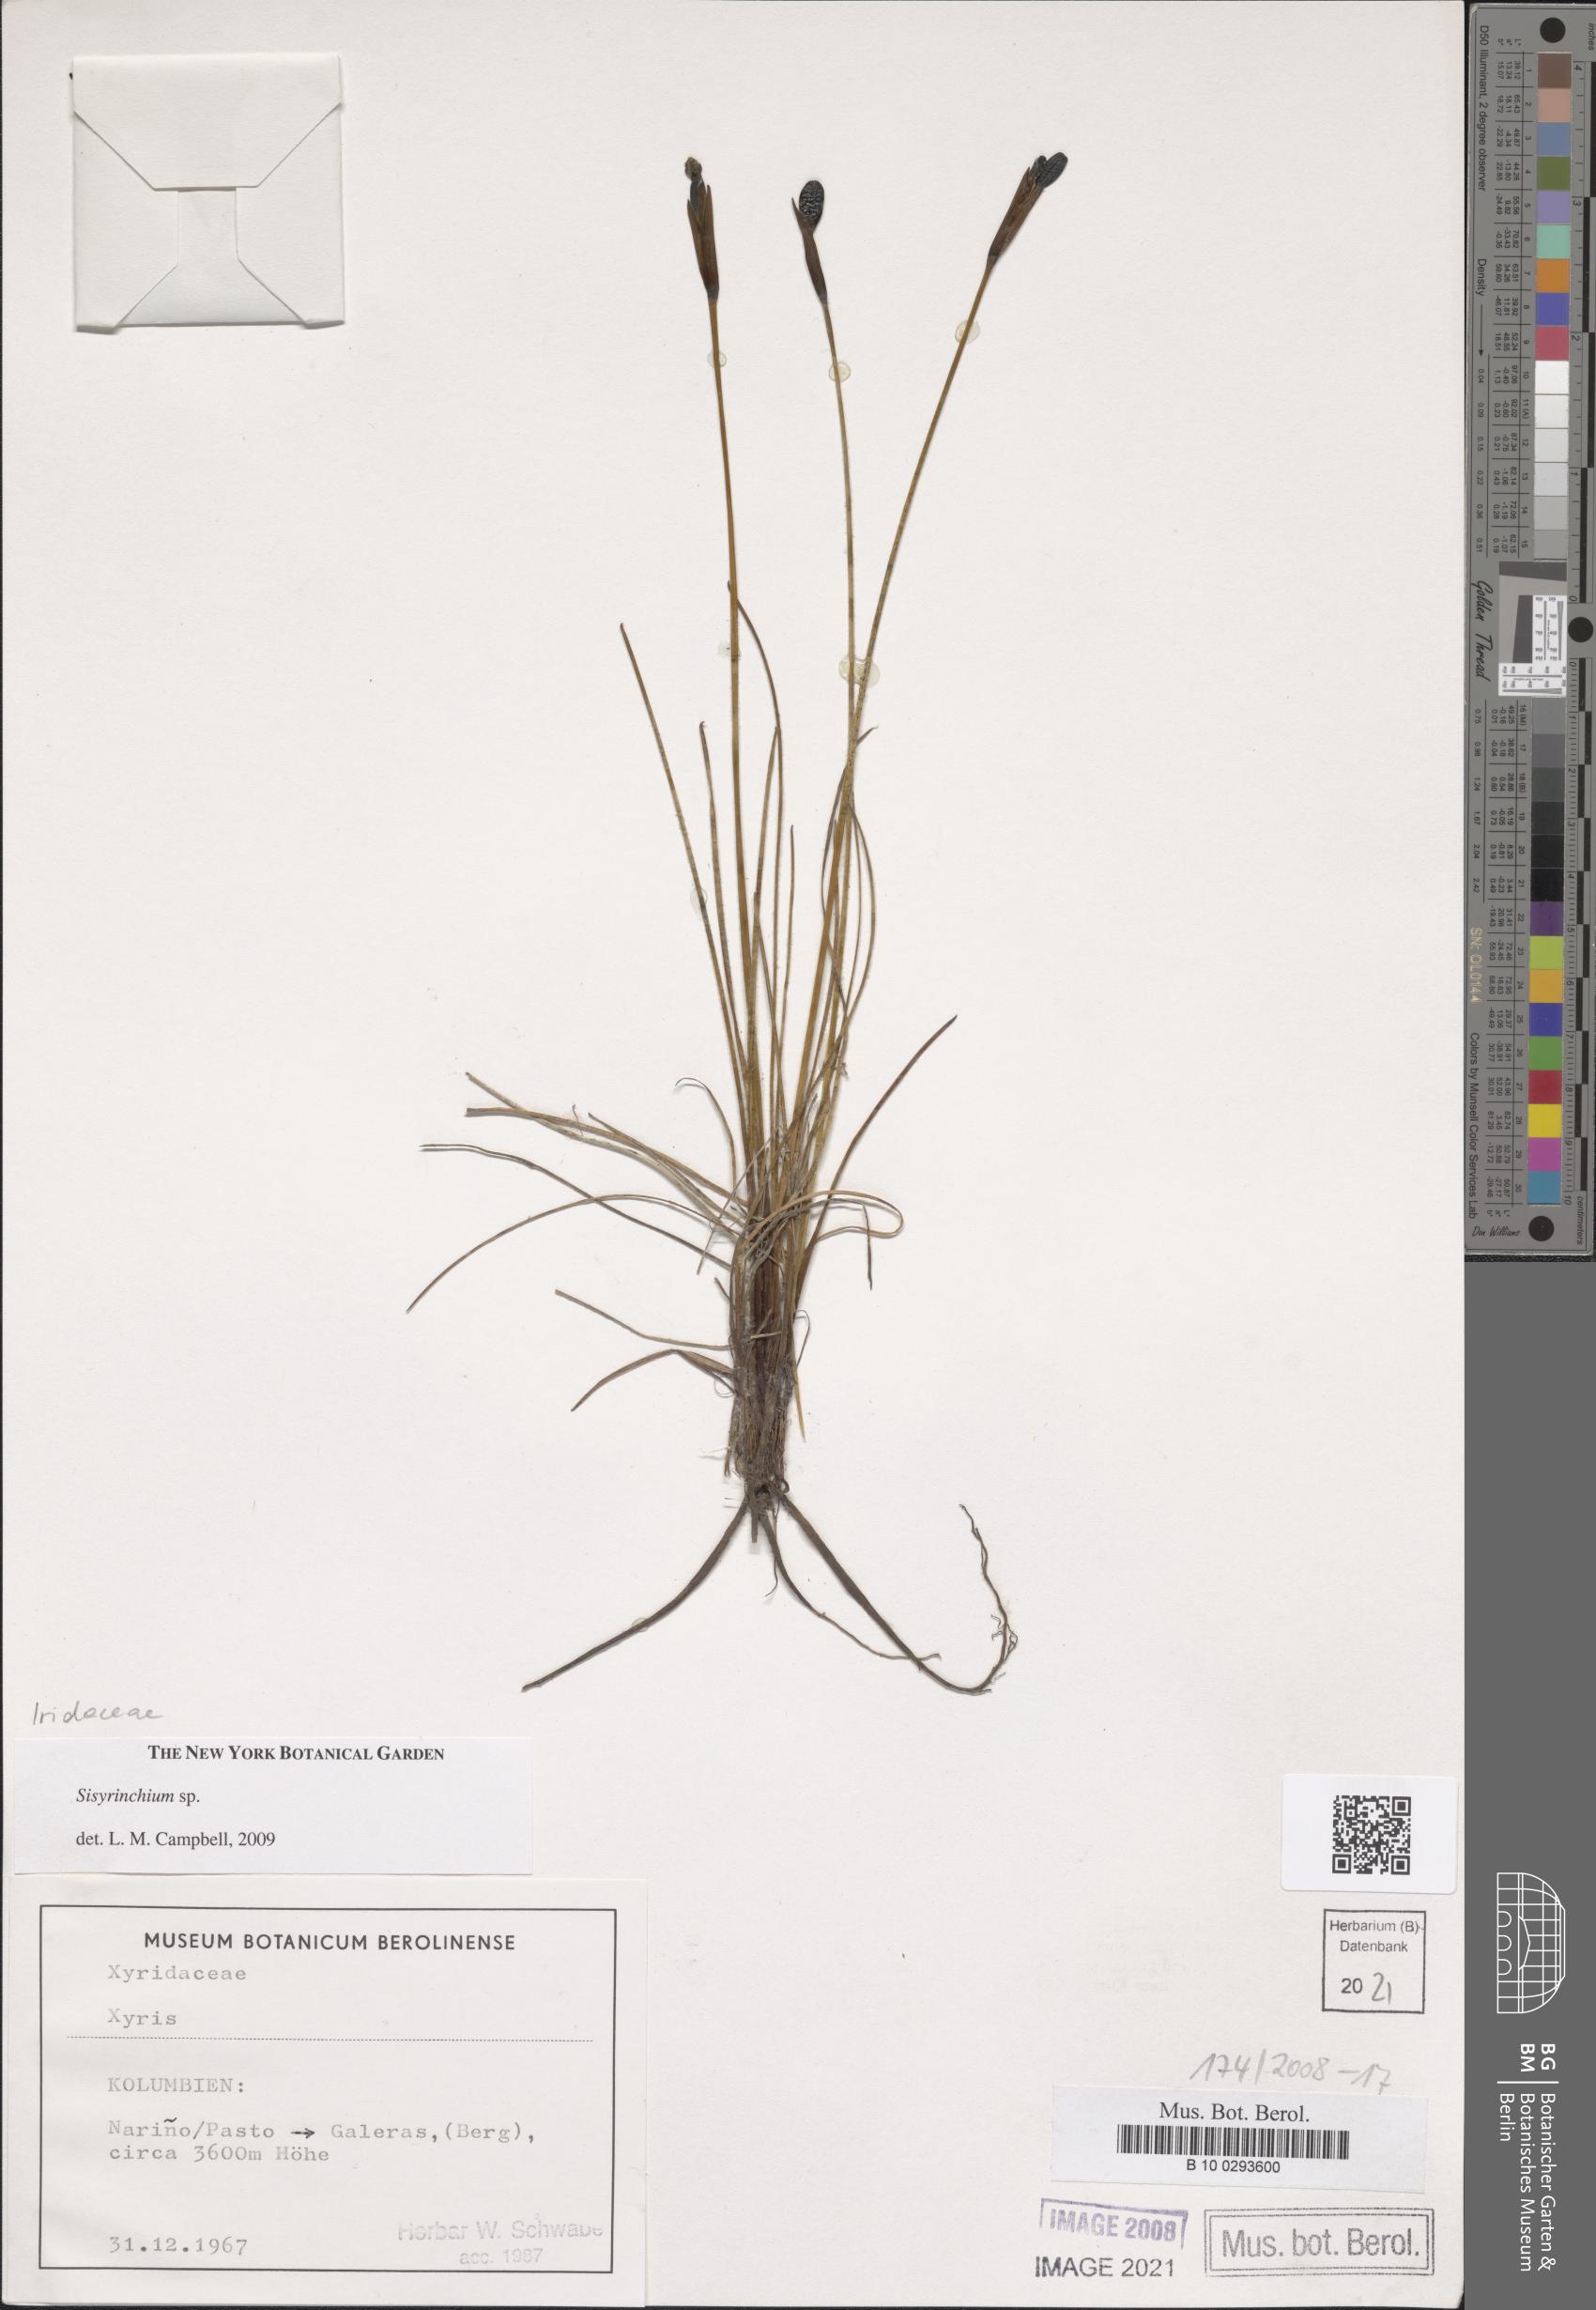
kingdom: Plantae
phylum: Tracheophyta
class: Liliopsida
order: Asparagales
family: Iridaceae
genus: Sisyrinchium
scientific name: Sisyrinchium
